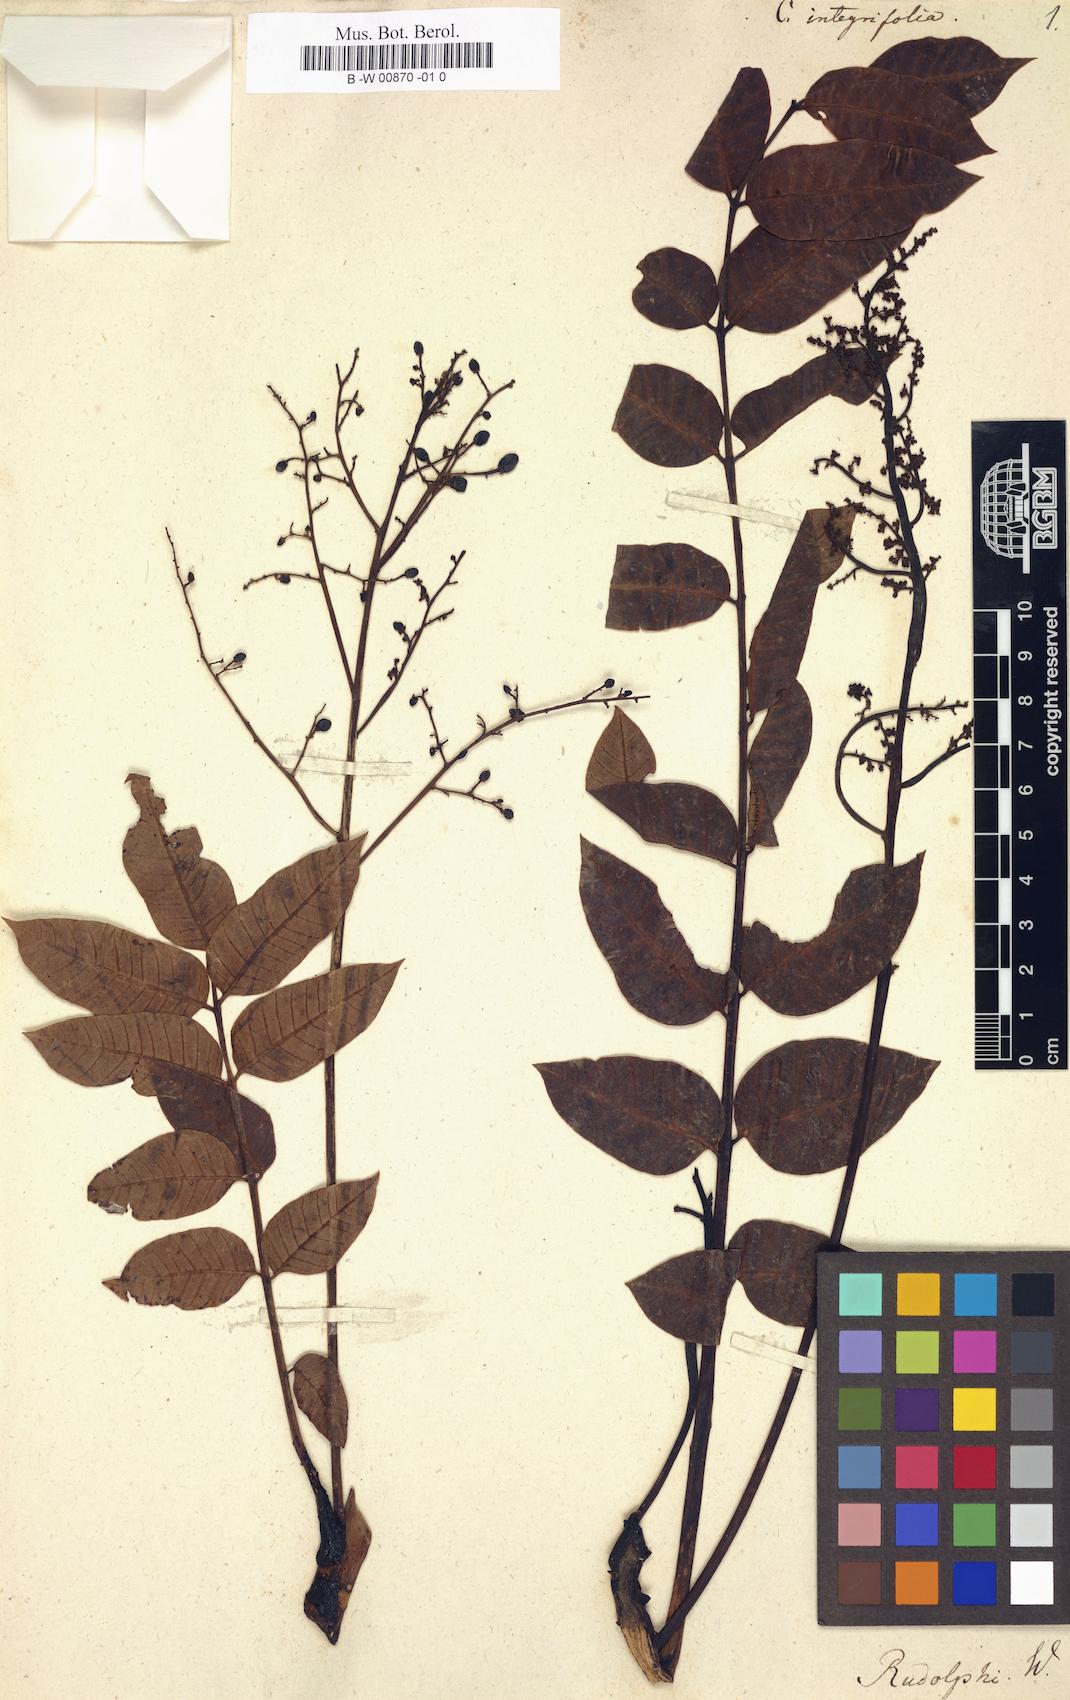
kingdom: Plantae
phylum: Tracheophyta
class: Magnoliopsida
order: Sapindales
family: Anacardiaceae
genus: Comocladia
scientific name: Comocladia pinnatifolia
